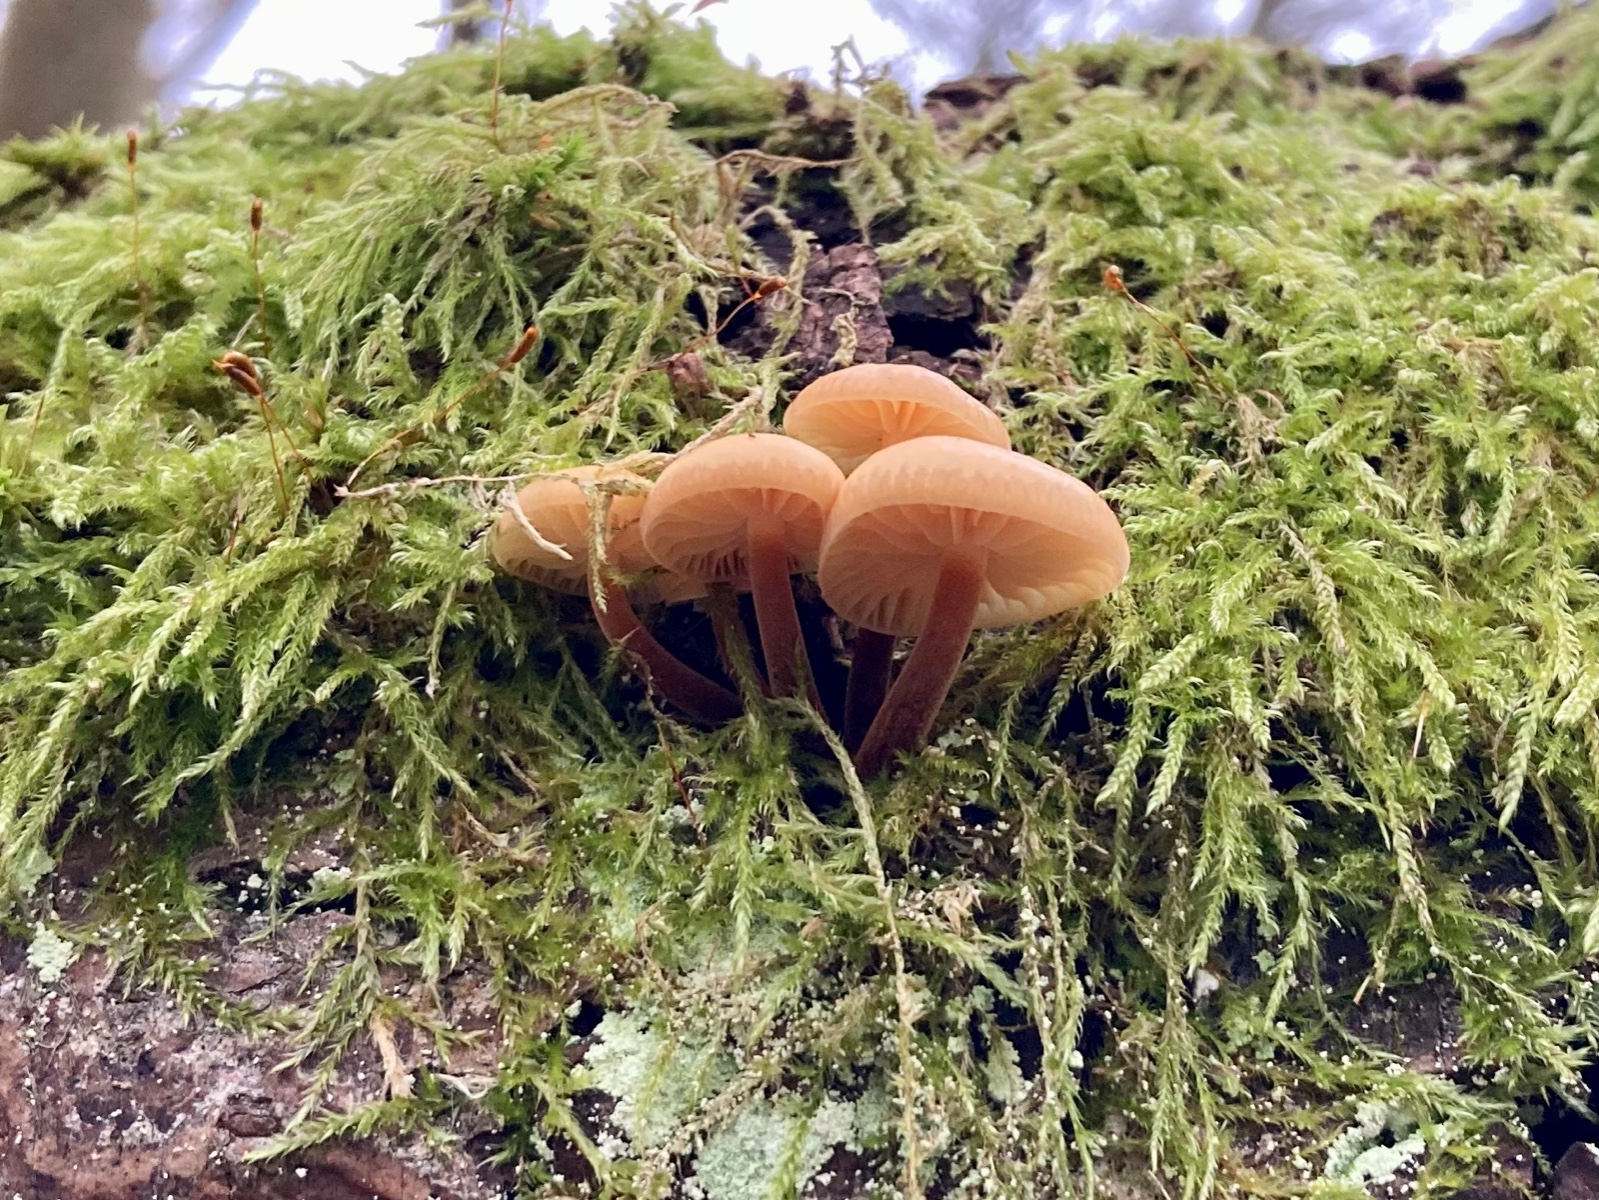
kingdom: Fungi
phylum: Basidiomycota
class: Agaricomycetes
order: Agaricales
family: Physalacriaceae
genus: Flammulina
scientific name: Flammulina
